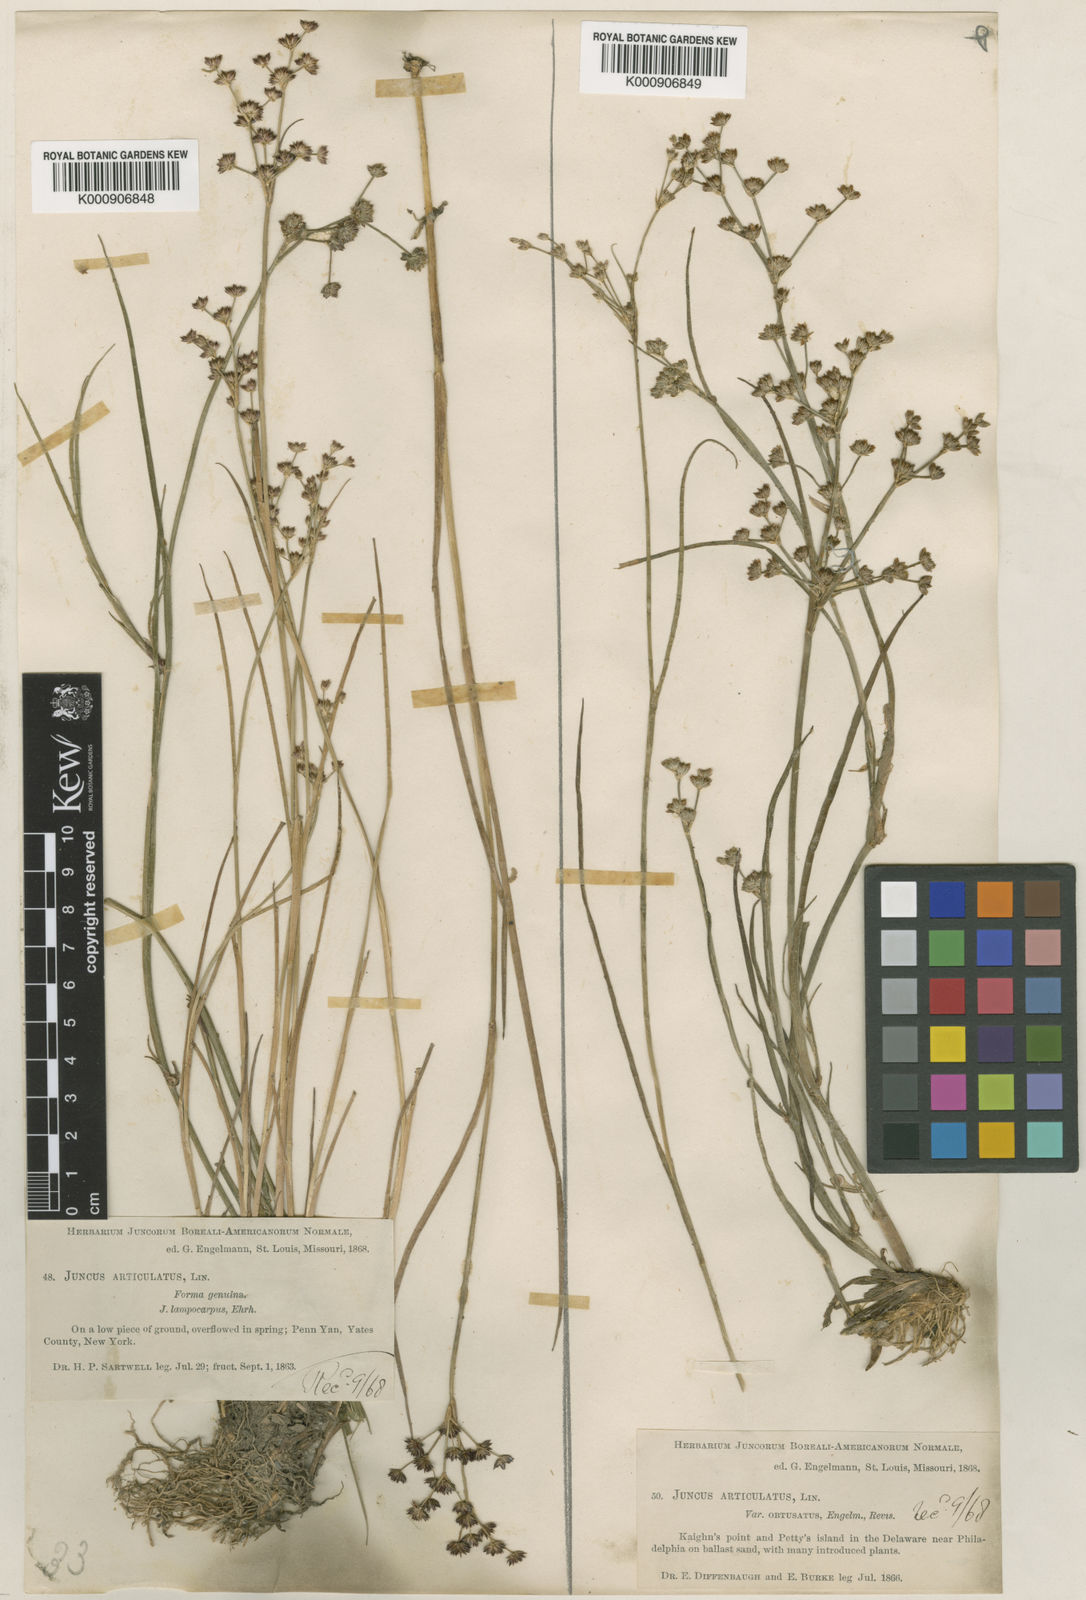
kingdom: Plantae
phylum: Tracheophyta
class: Liliopsida
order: Poales
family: Juncaceae
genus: Juncus
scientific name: Juncus articulatus
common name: Jointed rush
